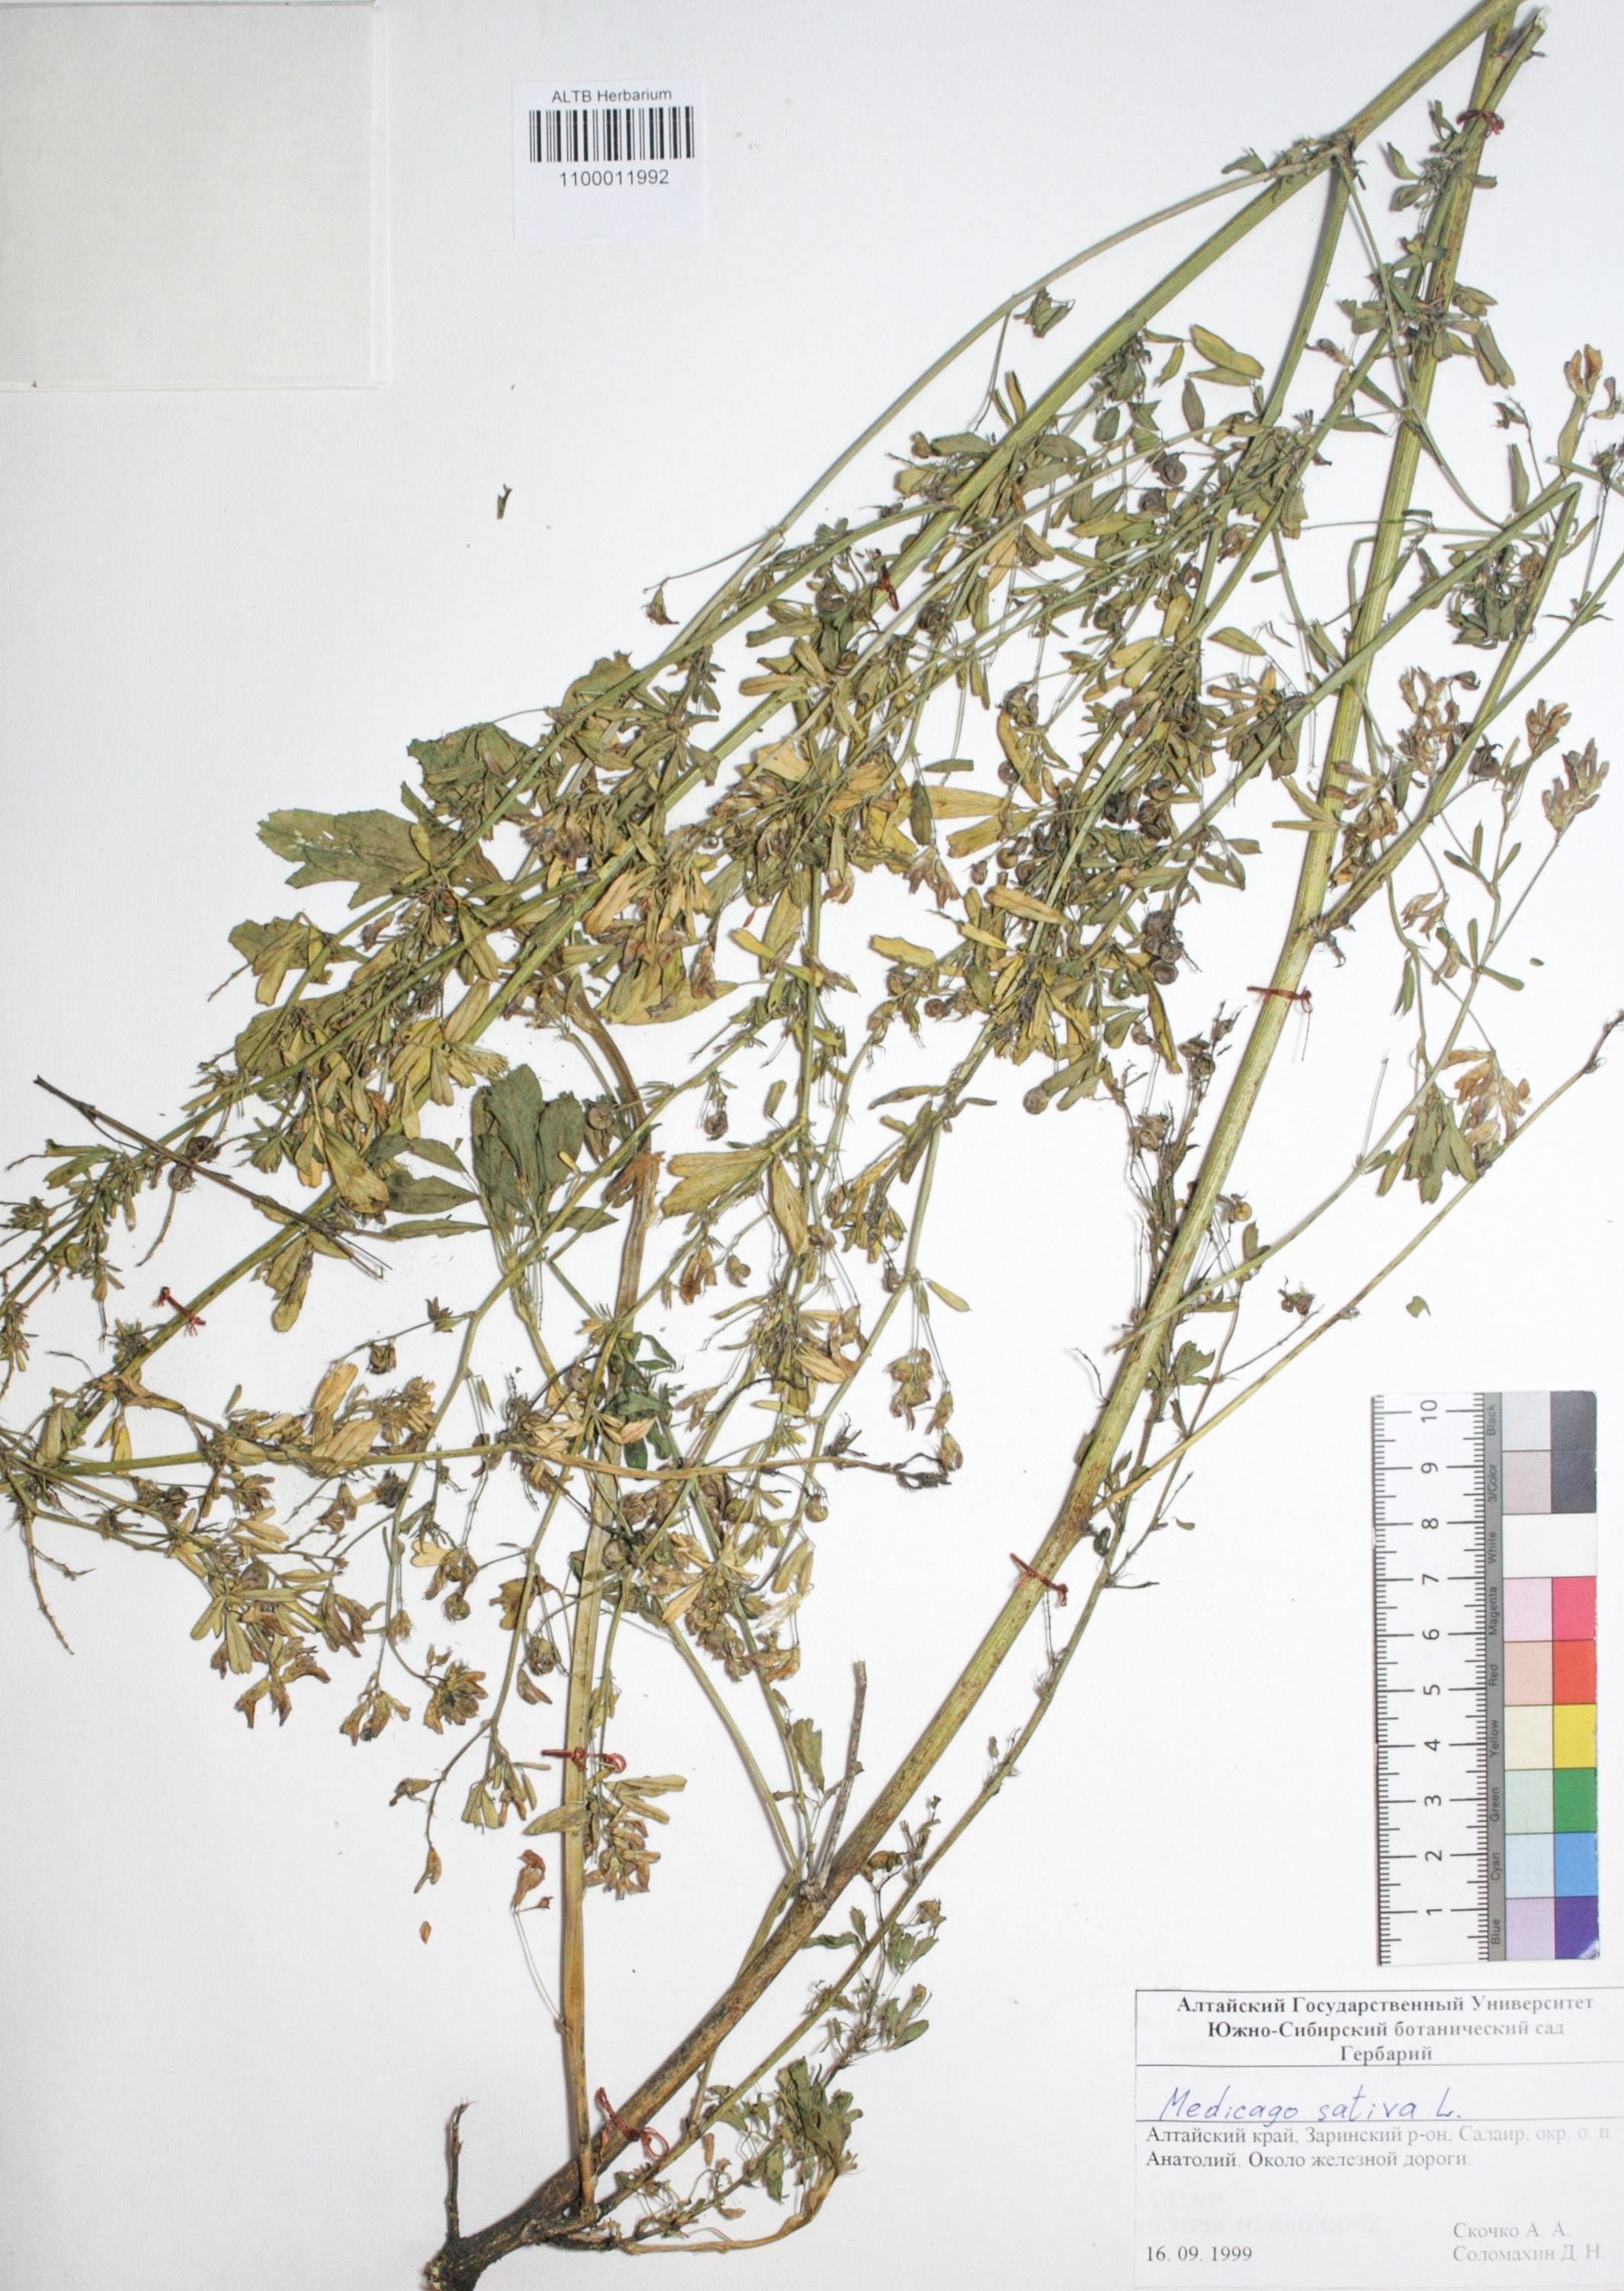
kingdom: Plantae
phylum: Tracheophyta
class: Magnoliopsida
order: Fabales
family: Fabaceae
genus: Medicago
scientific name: Medicago sativa
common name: Alfalfa
